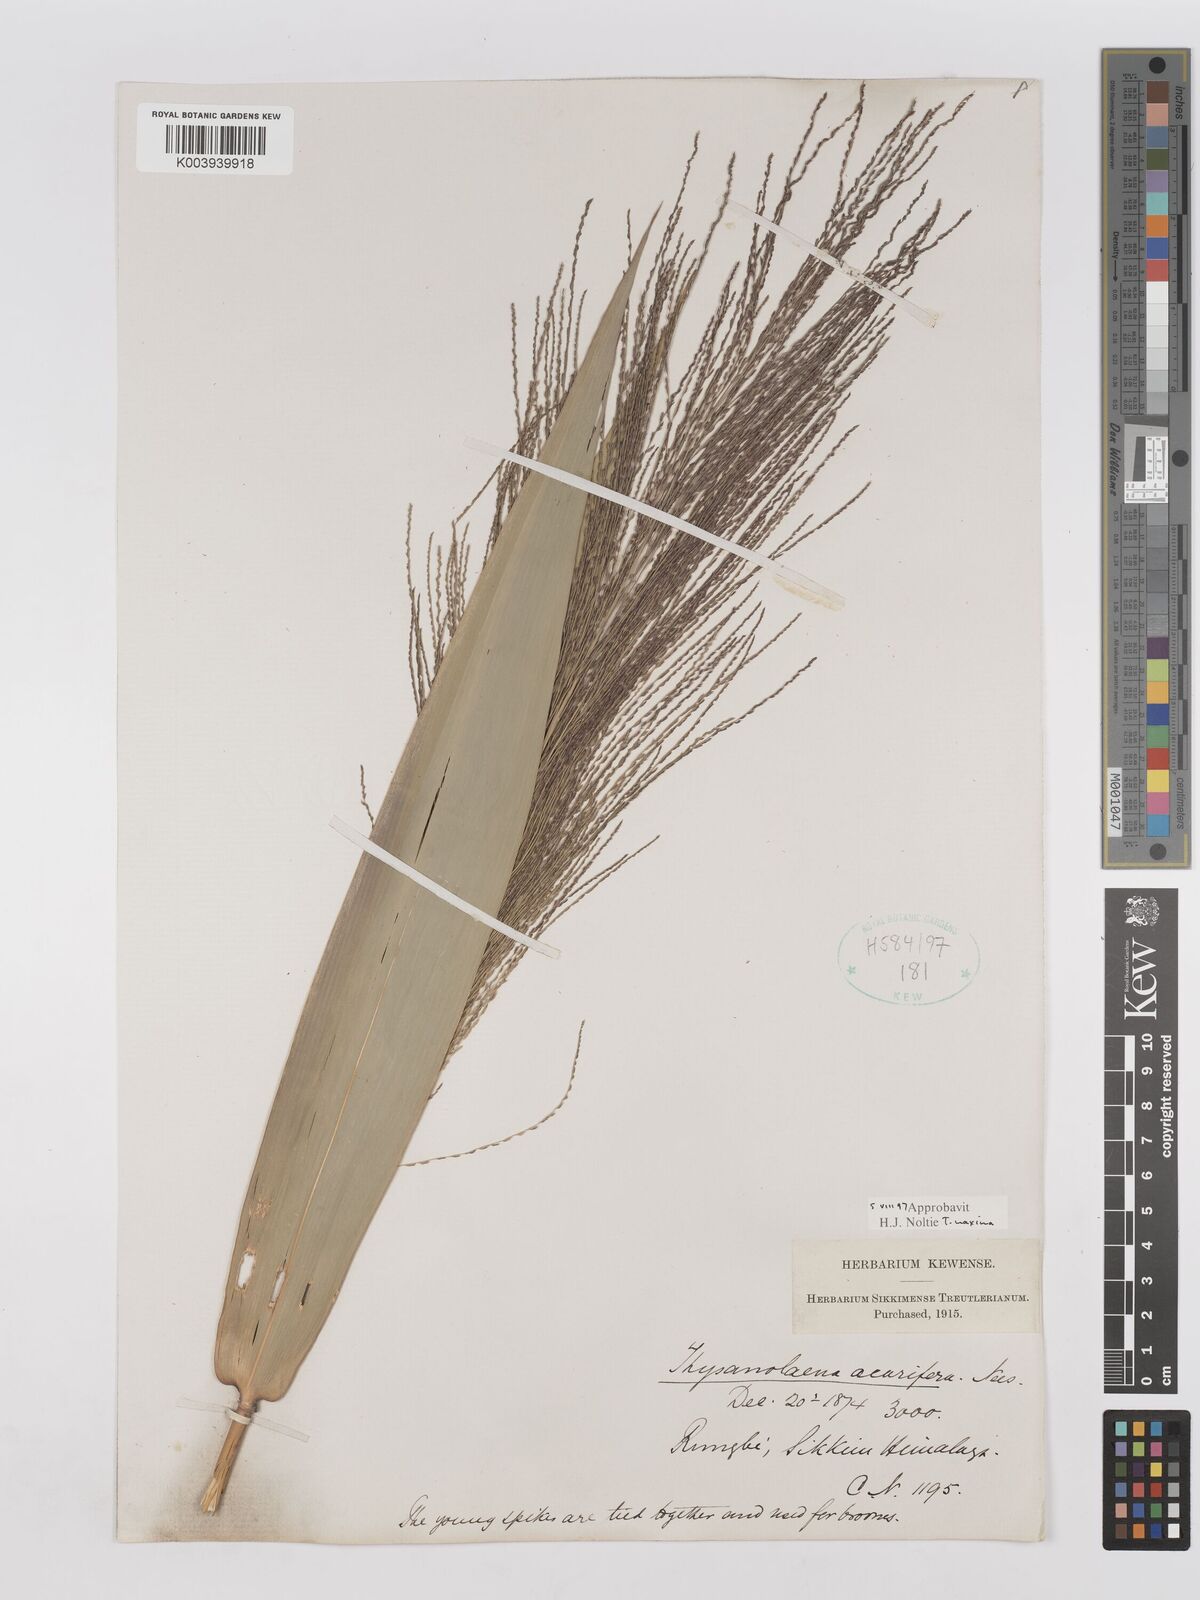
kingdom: Plantae
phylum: Tracheophyta
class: Liliopsida
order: Poales
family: Poaceae
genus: Thysanolaena
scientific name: Thysanolaena latifolia
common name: Tiger grass
